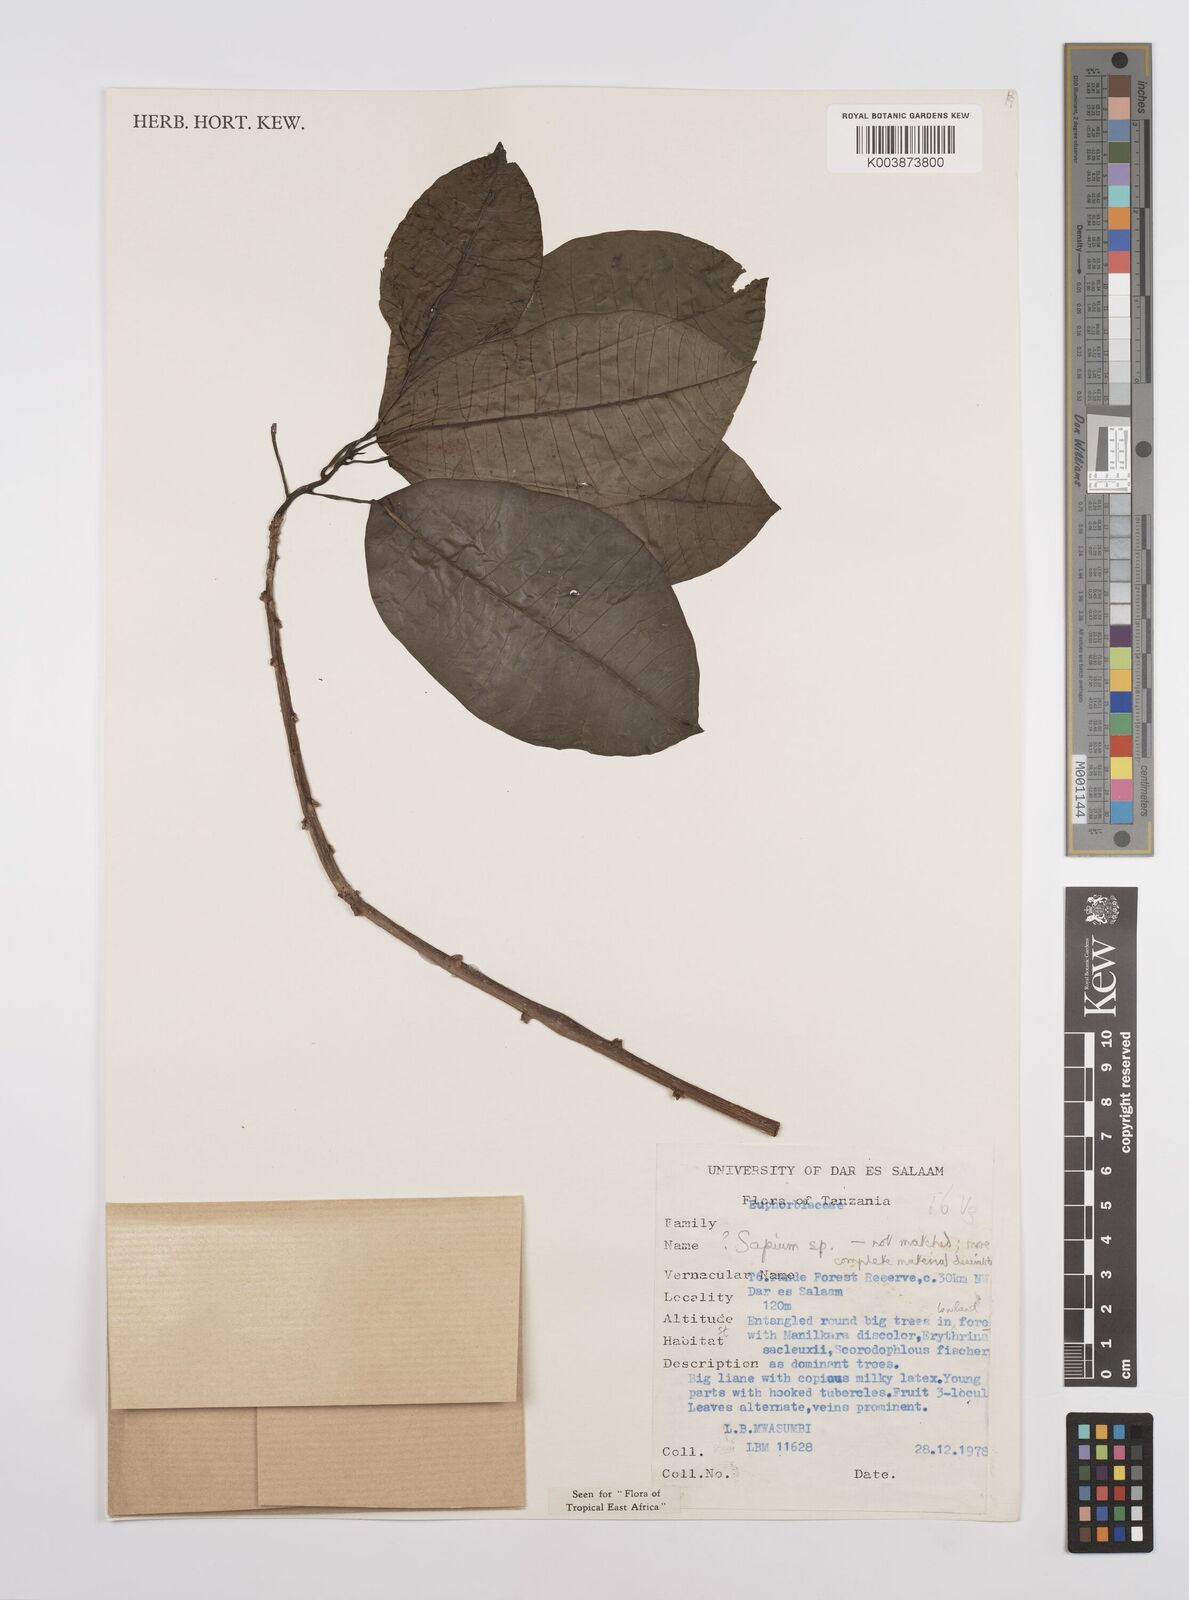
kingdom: Plantae
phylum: Tracheophyta
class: Magnoliopsida
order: Malpighiales
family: Euphorbiaceae
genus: Sapium
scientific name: Sapium
